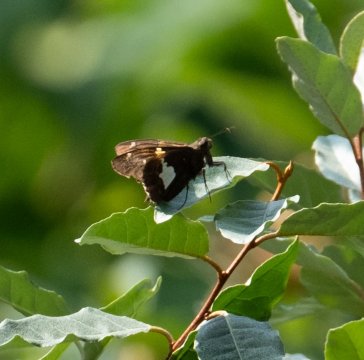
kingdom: Animalia
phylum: Arthropoda
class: Insecta
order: Lepidoptera
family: Hesperiidae
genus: Epargyreus
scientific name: Epargyreus clarus
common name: Silver-spotted Skipper
